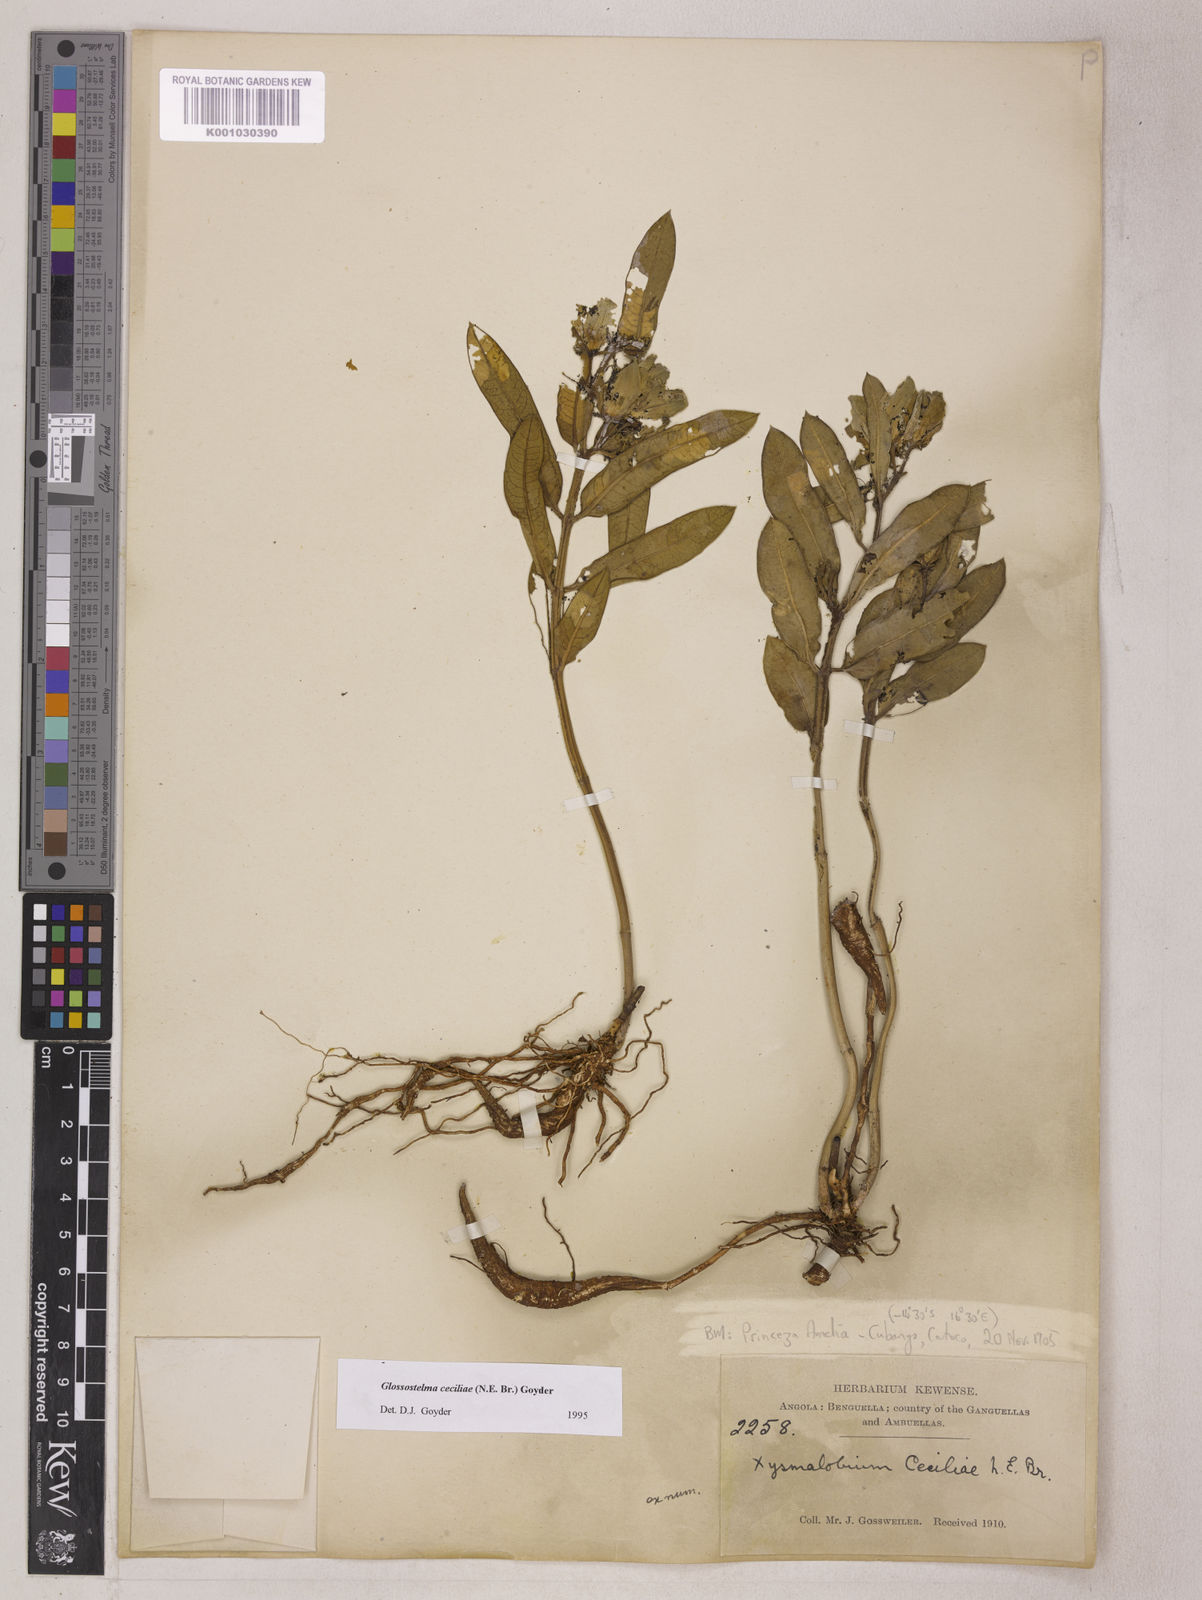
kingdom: Plantae
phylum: Tracheophyta
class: Magnoliopsida
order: Gentianales
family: Apocynaceae
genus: Glossostelma
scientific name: Glossostelma ceciliae
